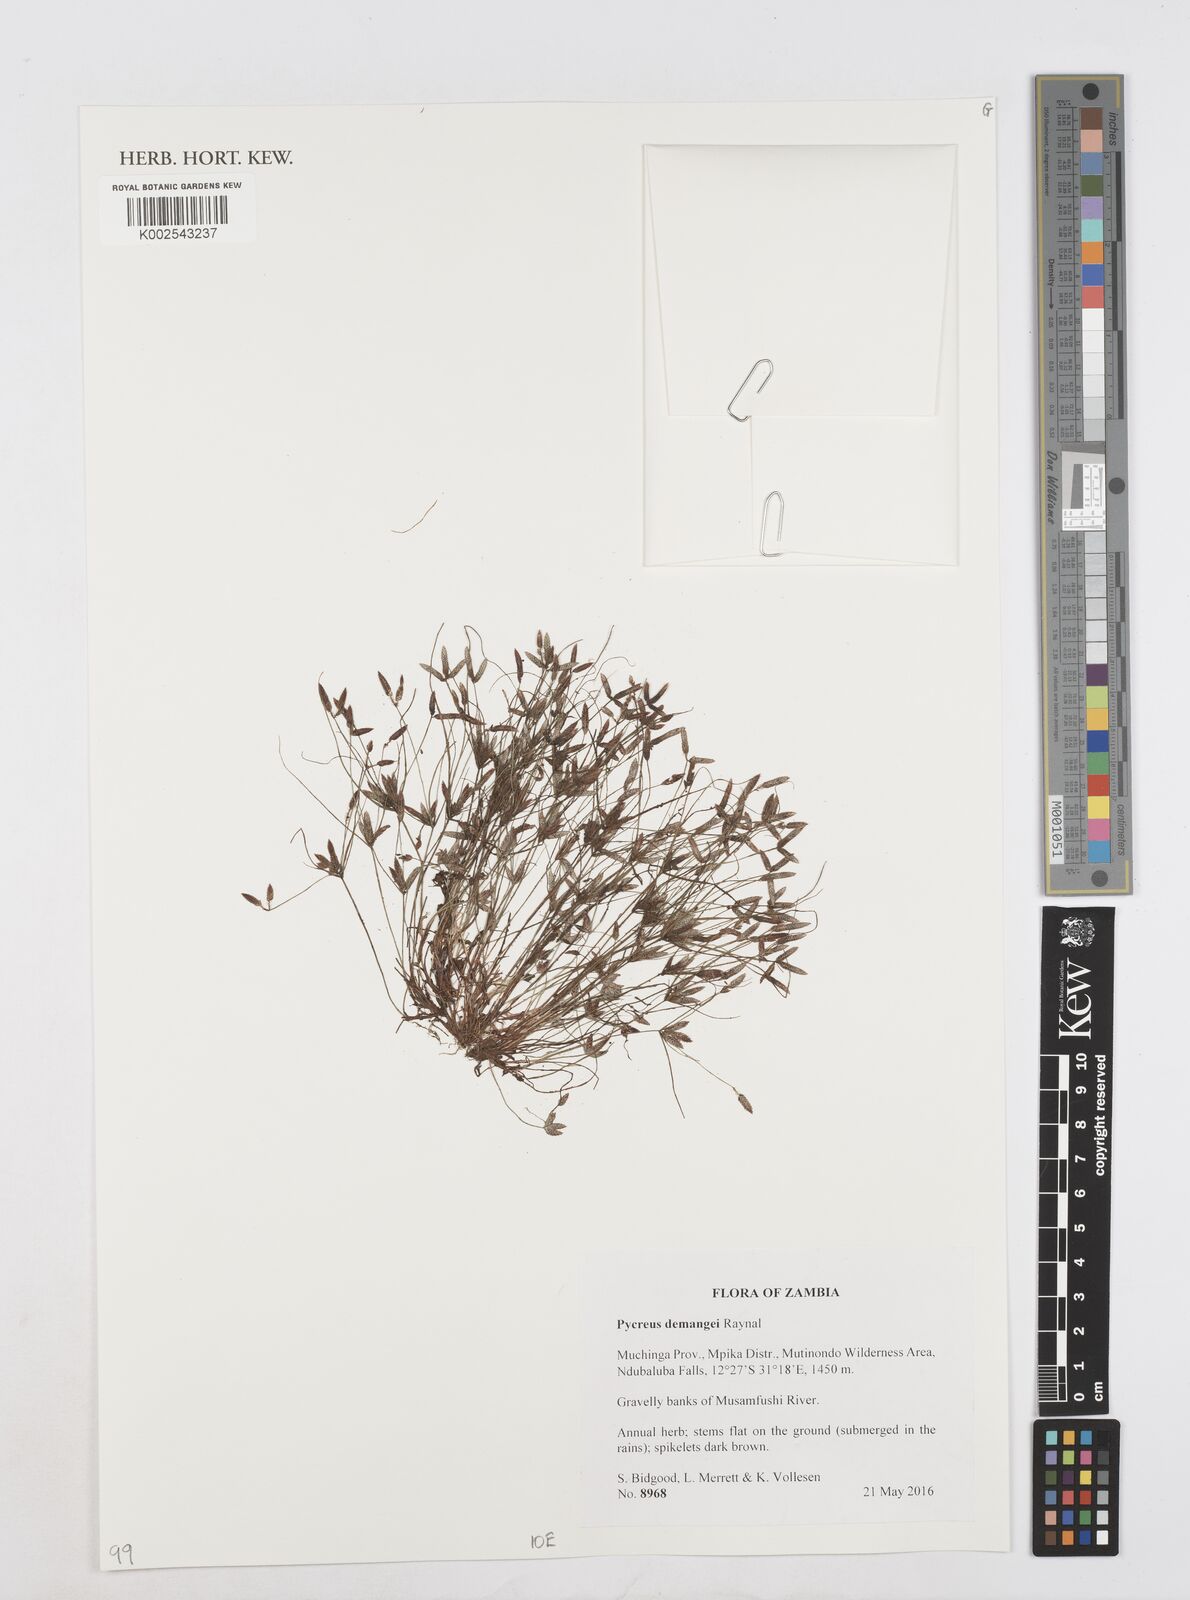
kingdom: Plantae
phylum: Tracheophyta
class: Liliopsida
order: Poales
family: Cyperaceae
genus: Cyperus
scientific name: Cyperus demangei
